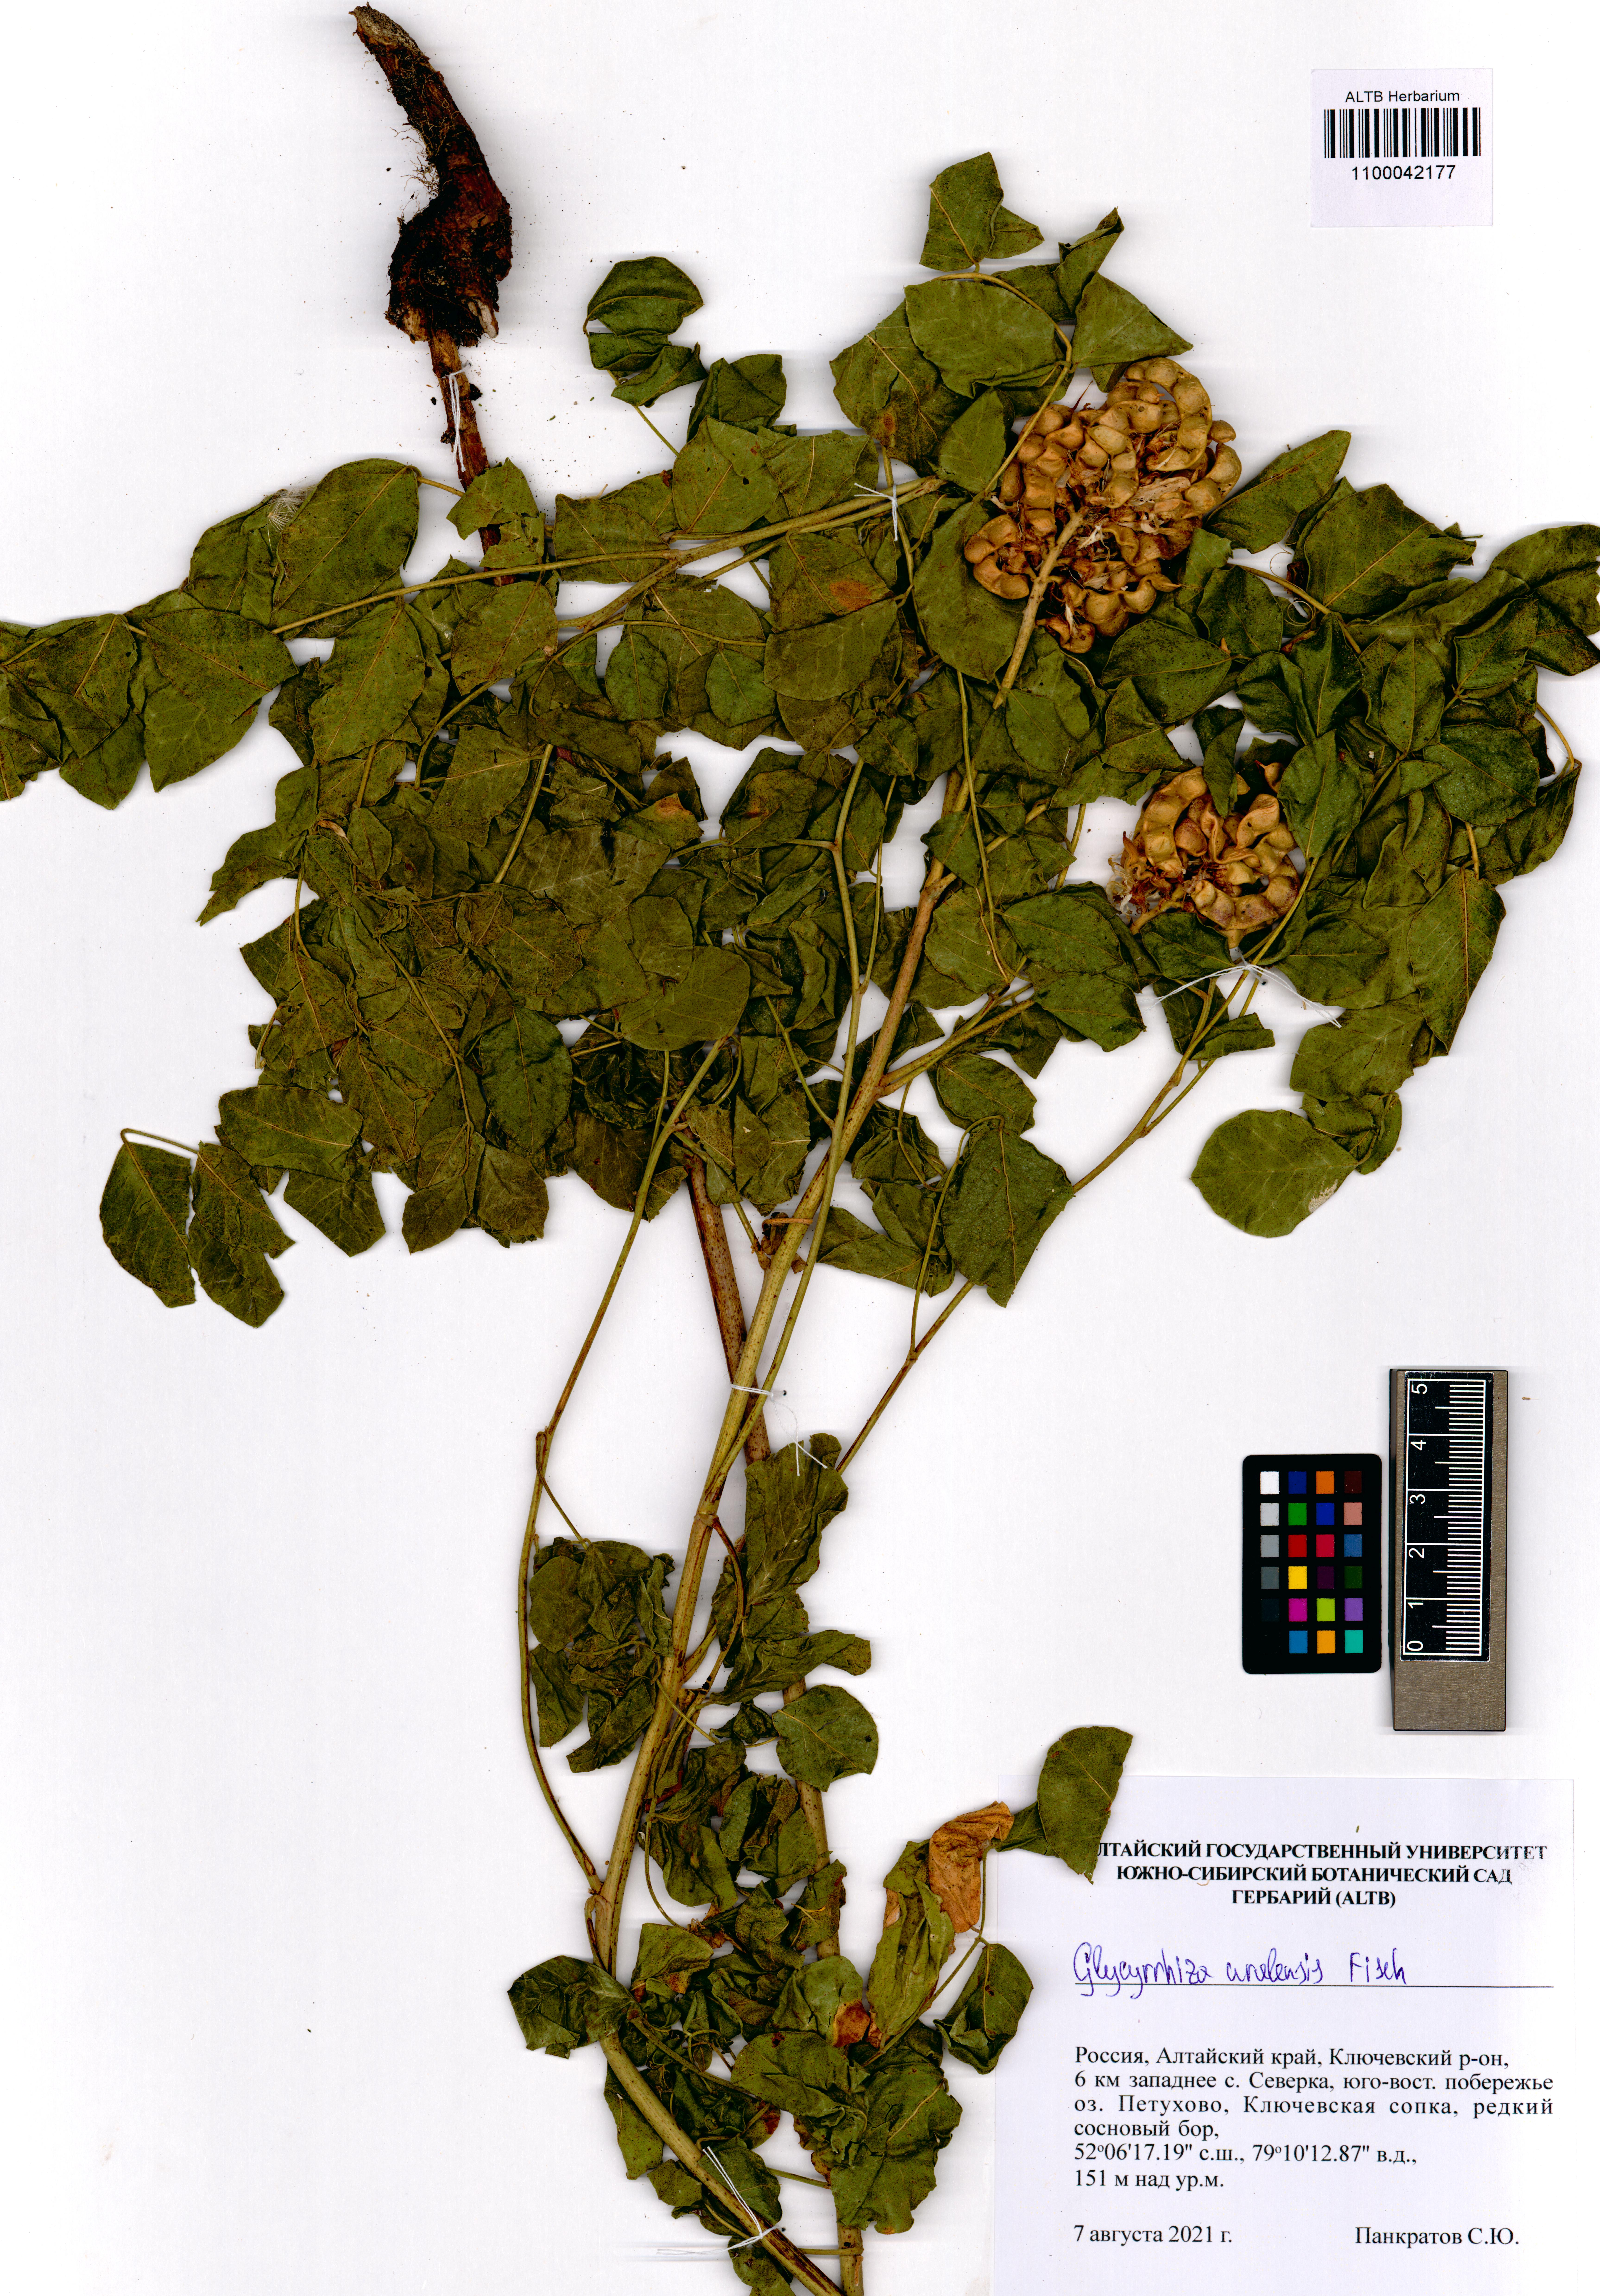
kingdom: Plantae
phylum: Tracheophyta
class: Magnoliopsida
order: Fabales
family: Fabaceae
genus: Glycyrrhiza
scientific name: Glycyrrhiza uralensis
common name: Chinese licorice
